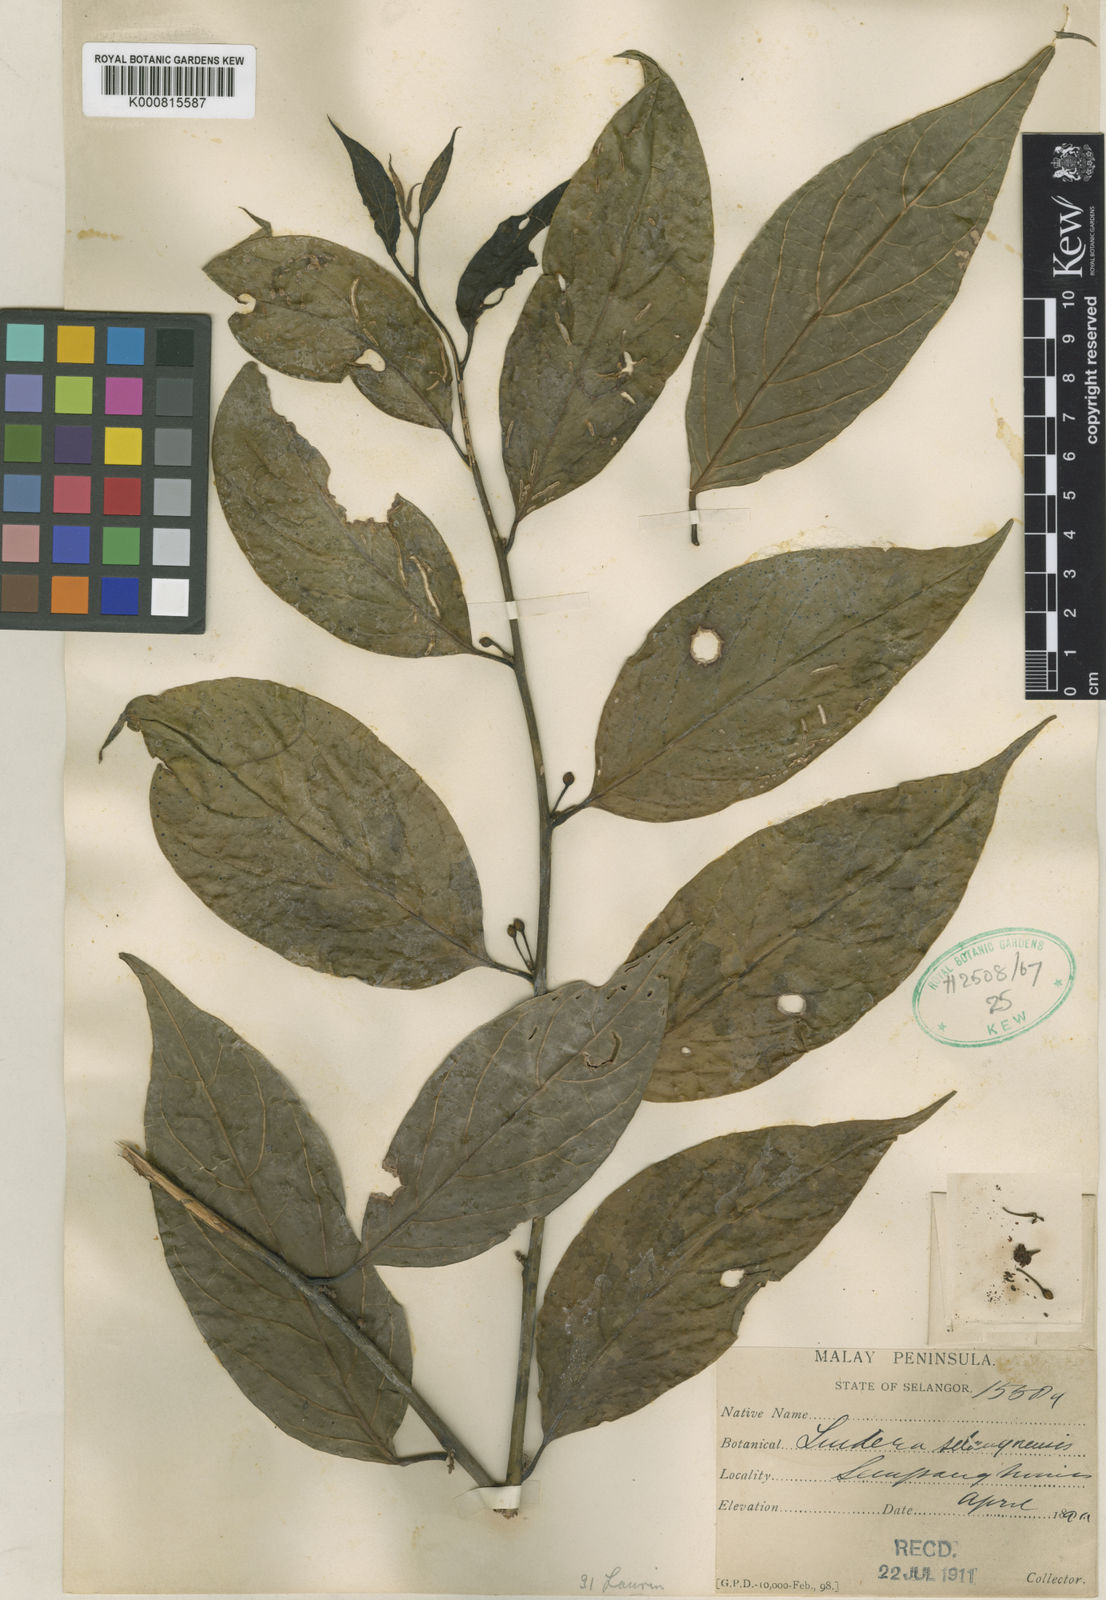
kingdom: Plantae
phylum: Tracheophyta
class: Magnoliopsida
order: Laurales
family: Lauraceae
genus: Lindera
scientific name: Lindera selangorensis
